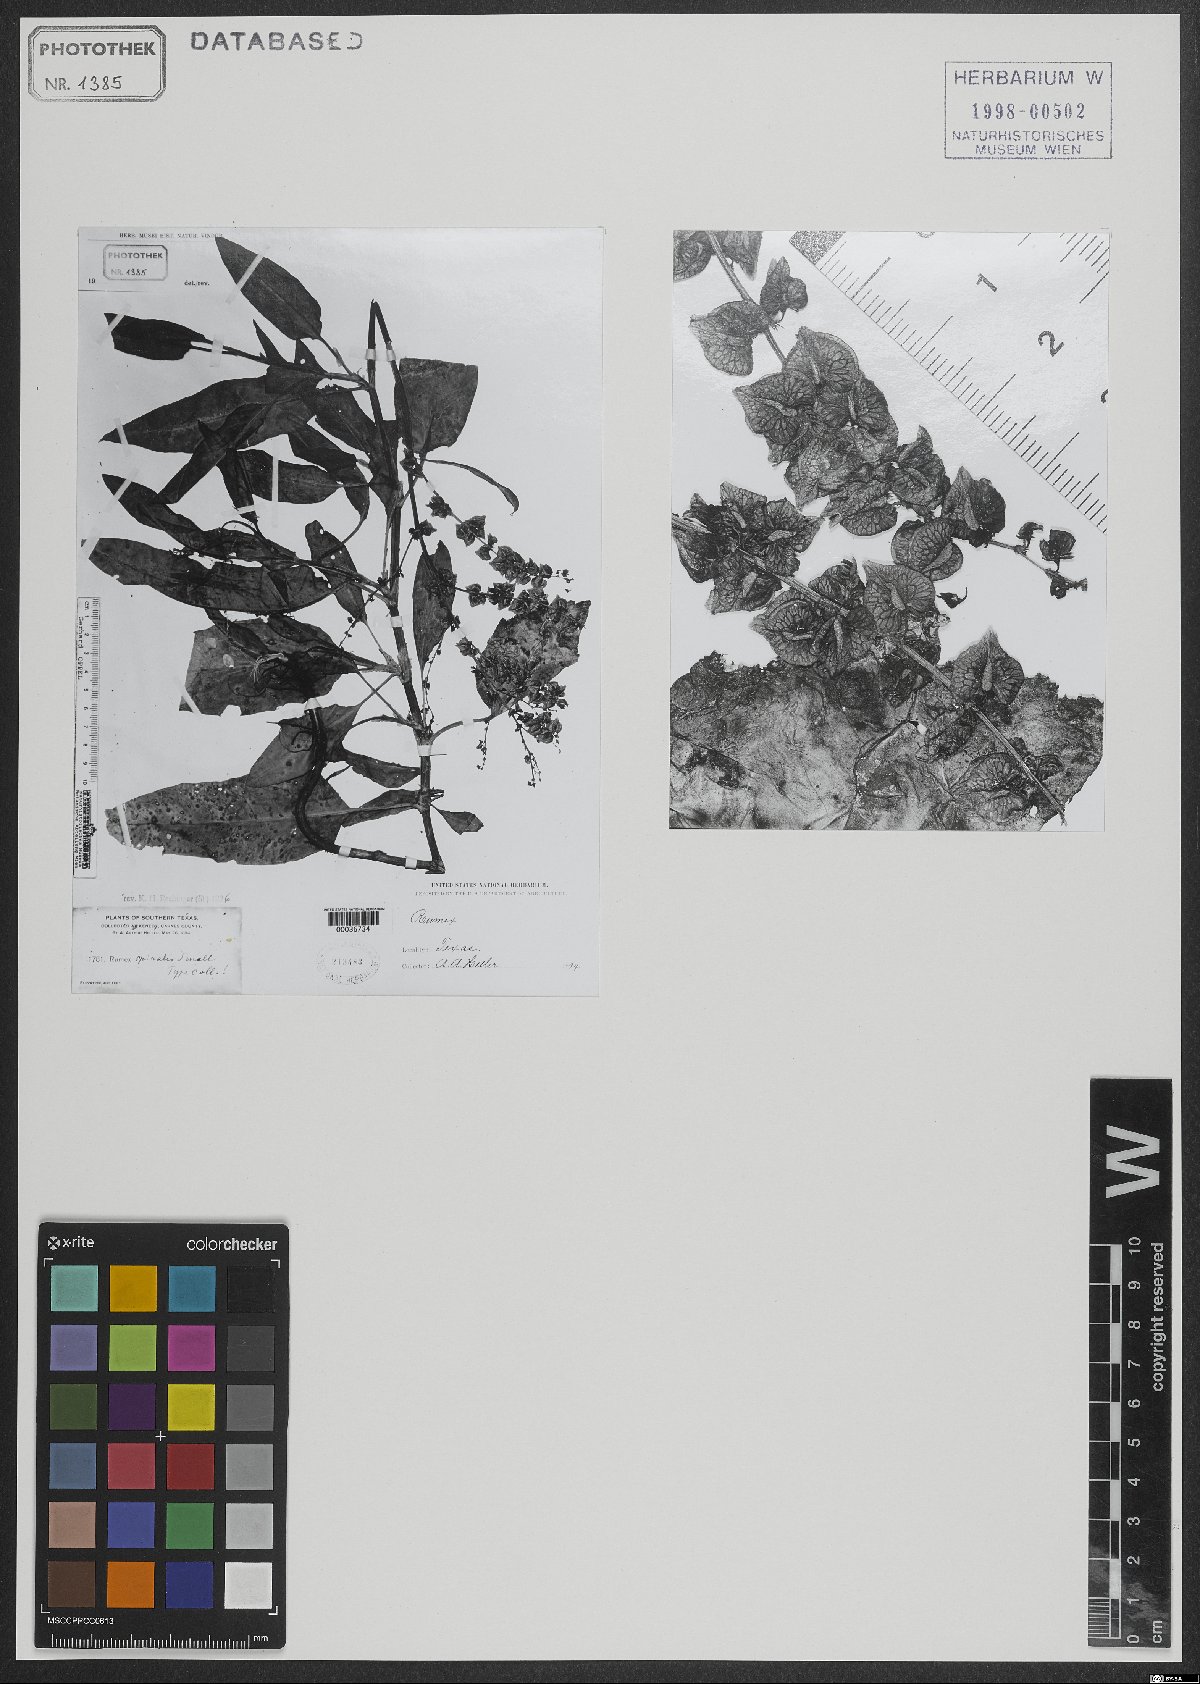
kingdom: Plantae
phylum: Tracheophyta
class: Magnoliopsida
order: Caryophyllales
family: Polygonaceae
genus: Rumex
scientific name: Rumex spiralis
